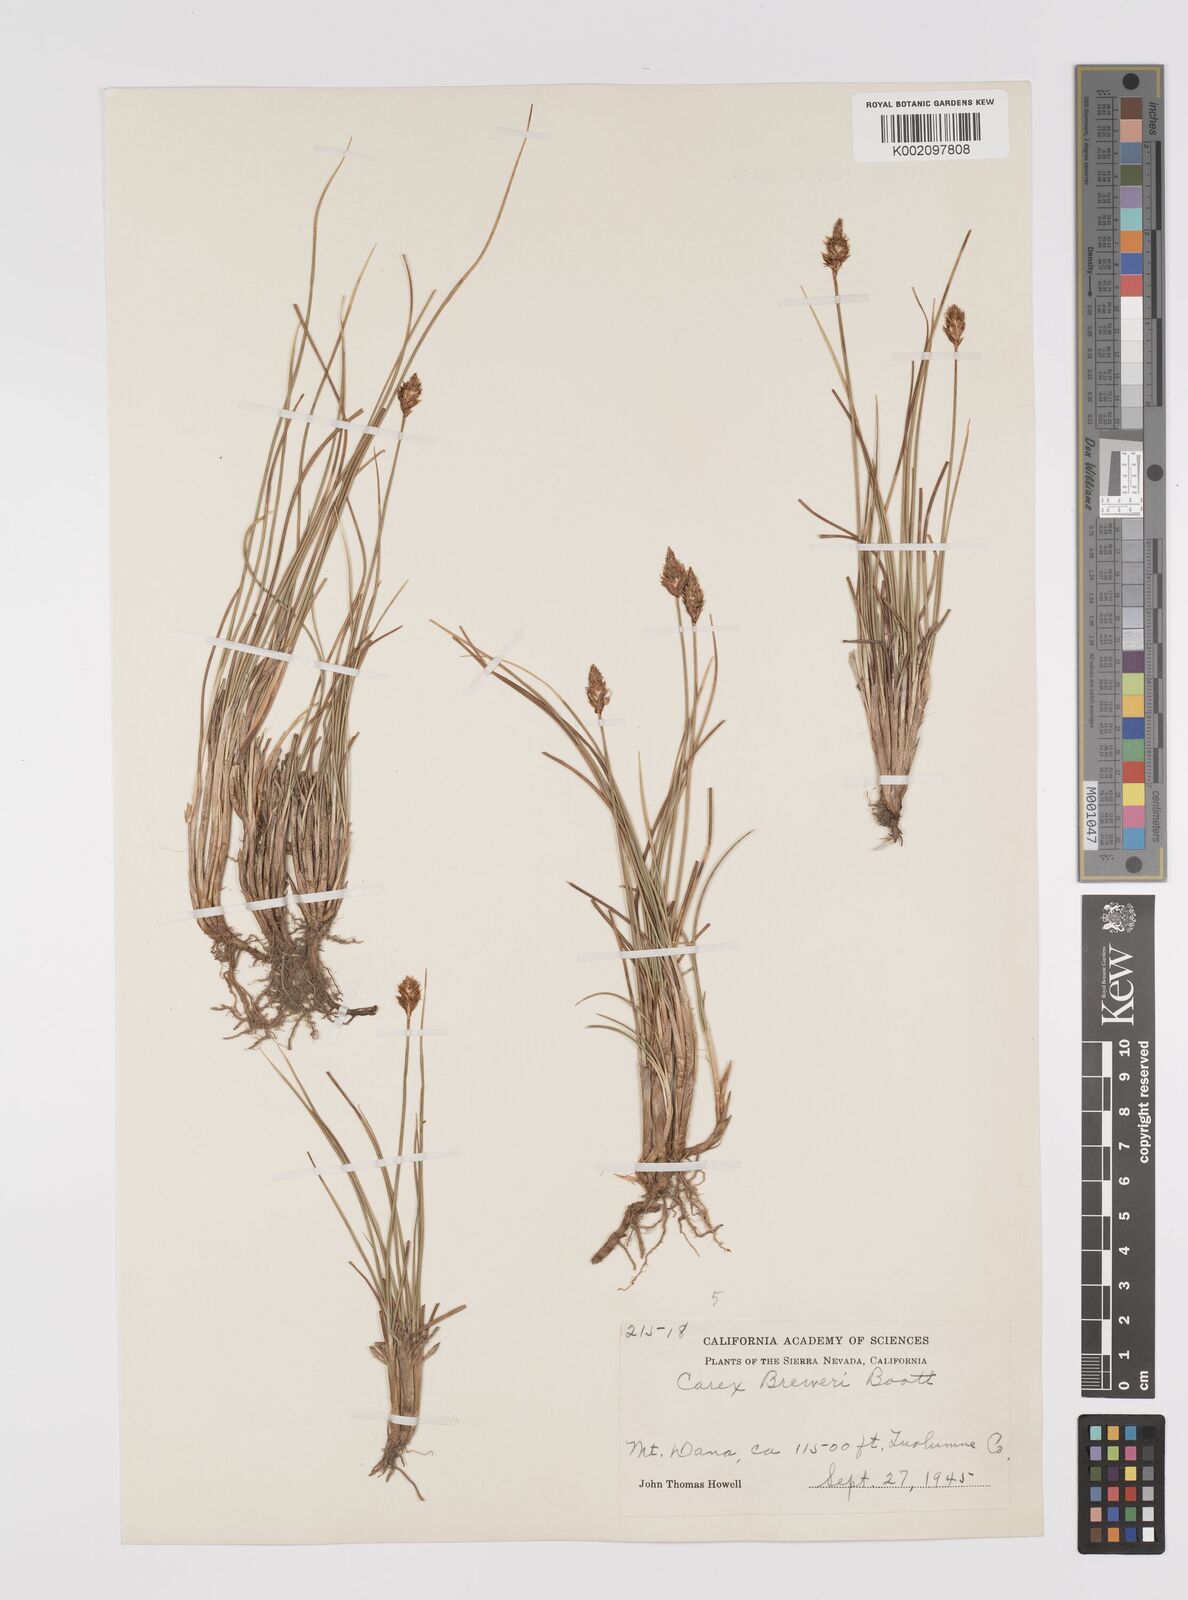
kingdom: Plantae
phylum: Tracheophyta
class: Liliopsida
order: Poales
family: Cyperaceae
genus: Carex
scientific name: Carex breweri
